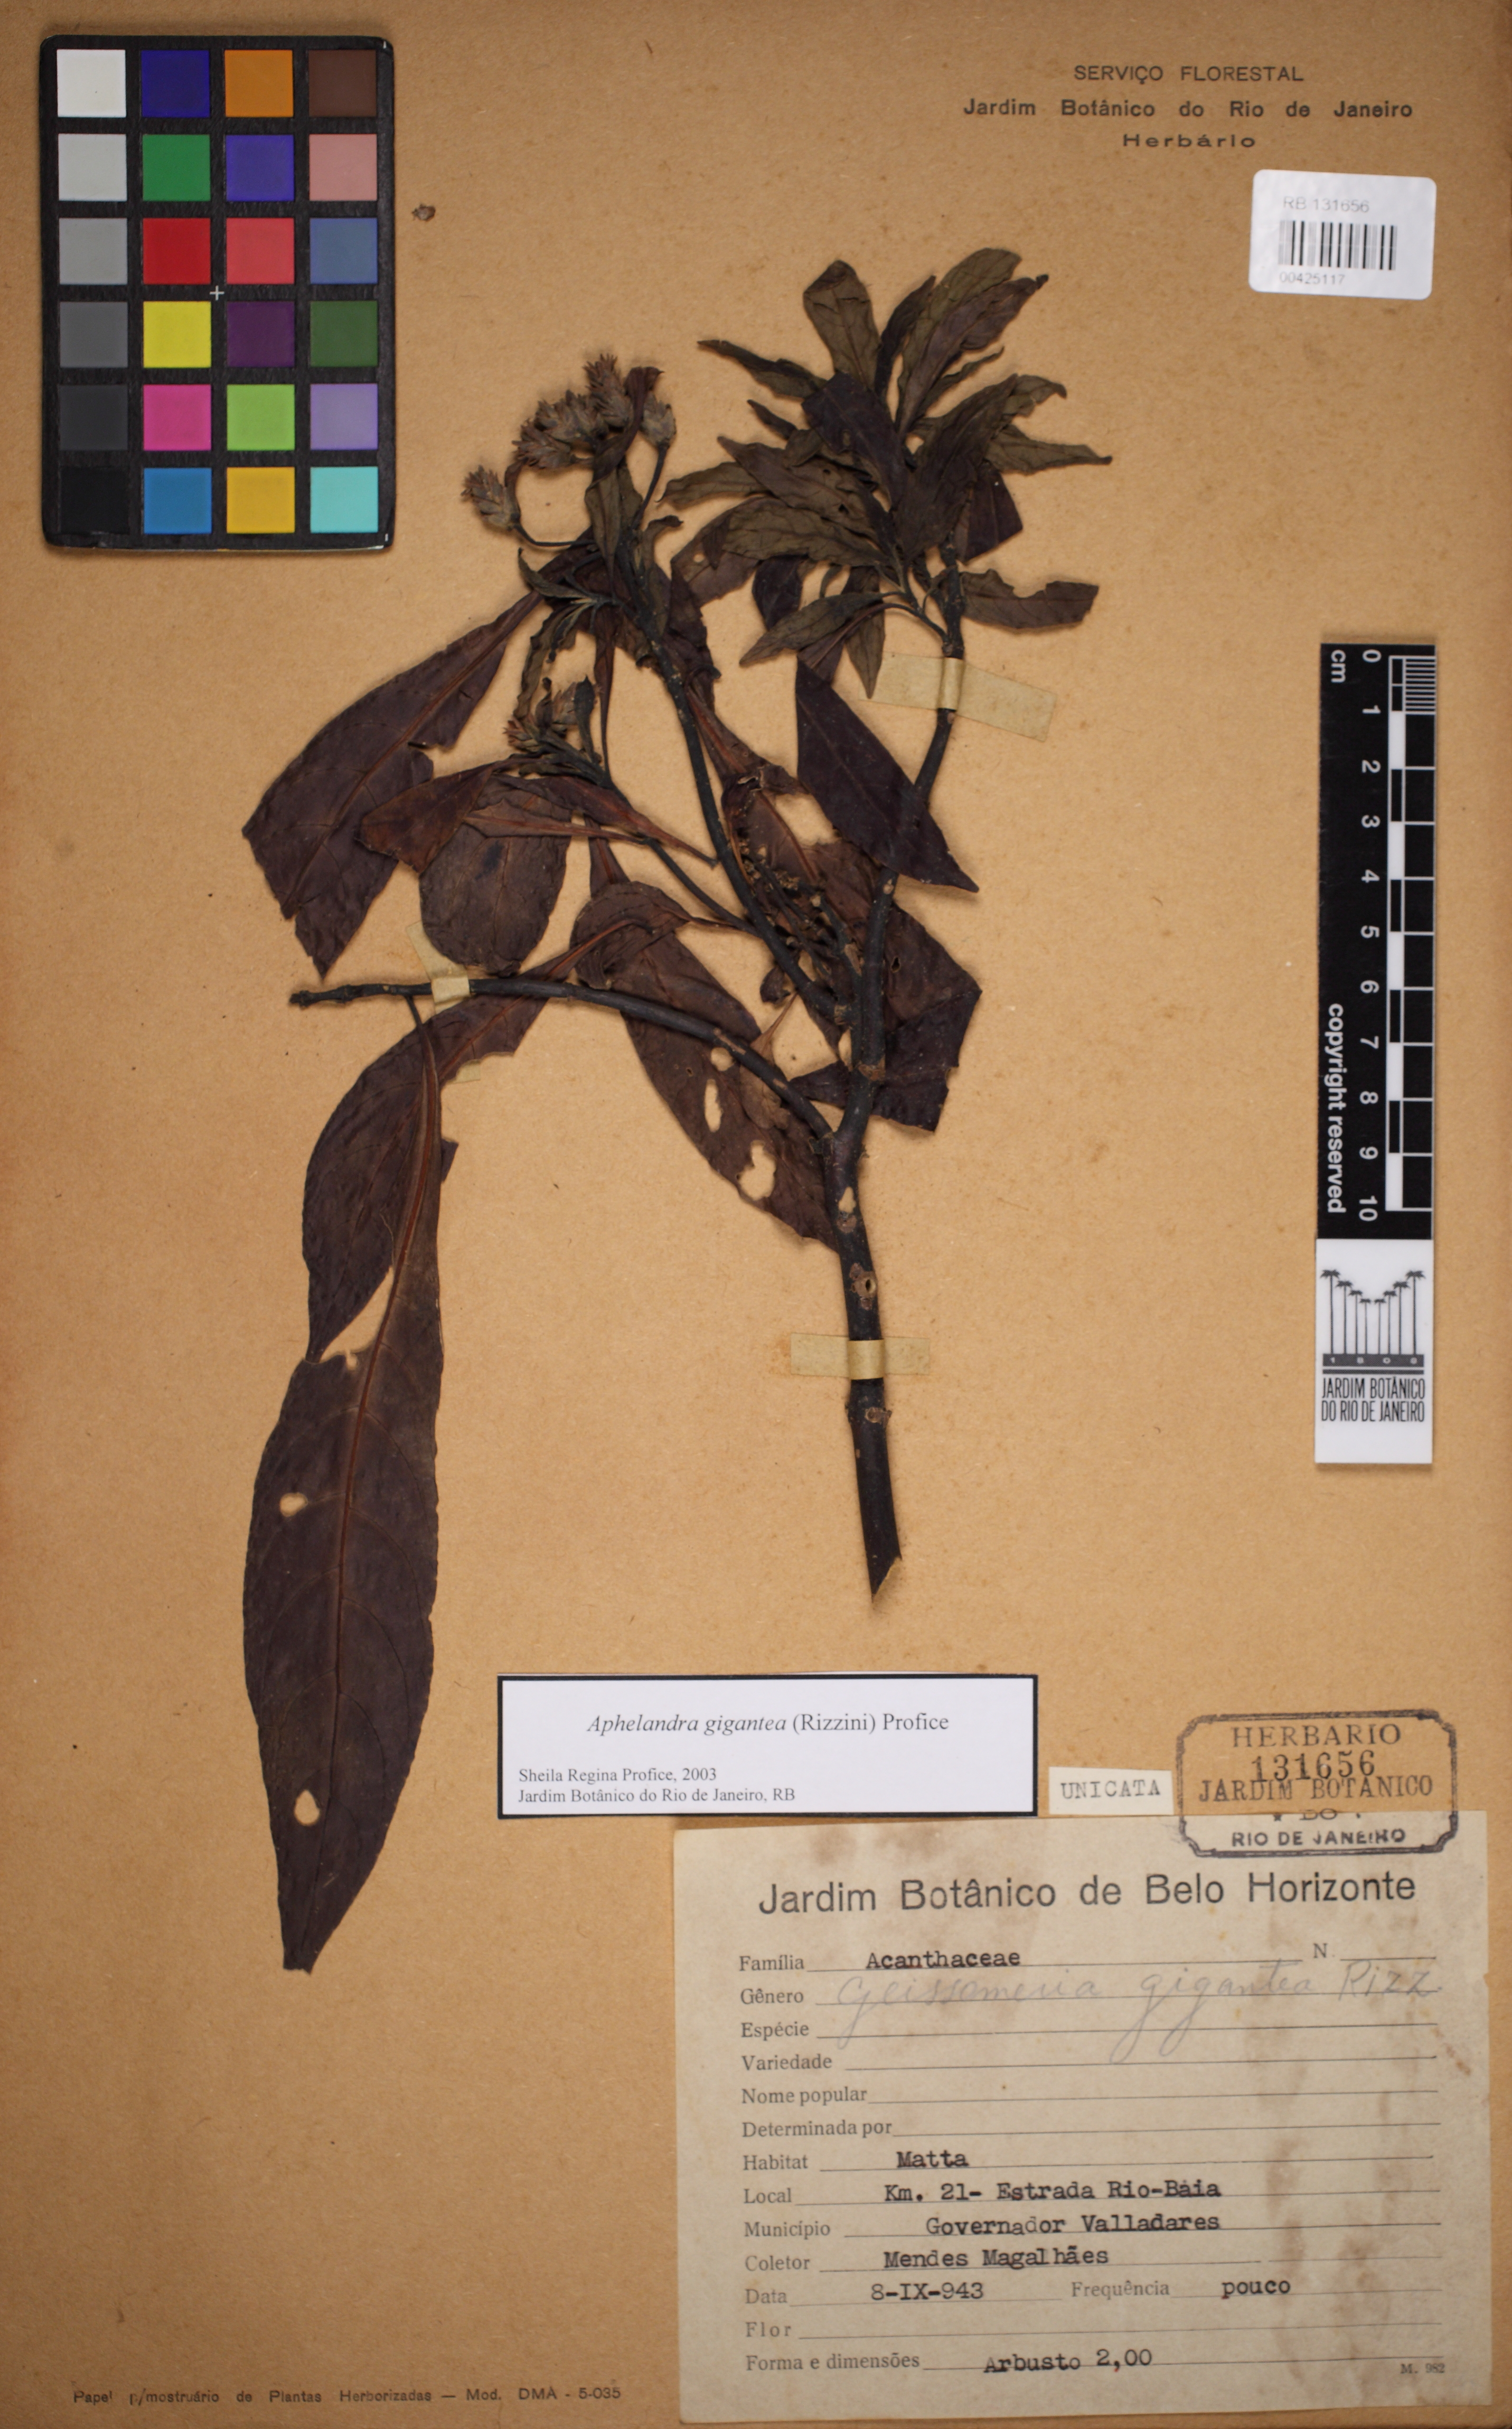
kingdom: Plantae
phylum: Tracheophyta
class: Magnoliopsida
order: Lamiales
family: Acanthaceae
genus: Aphelandra
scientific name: Aphelandra gigantea
